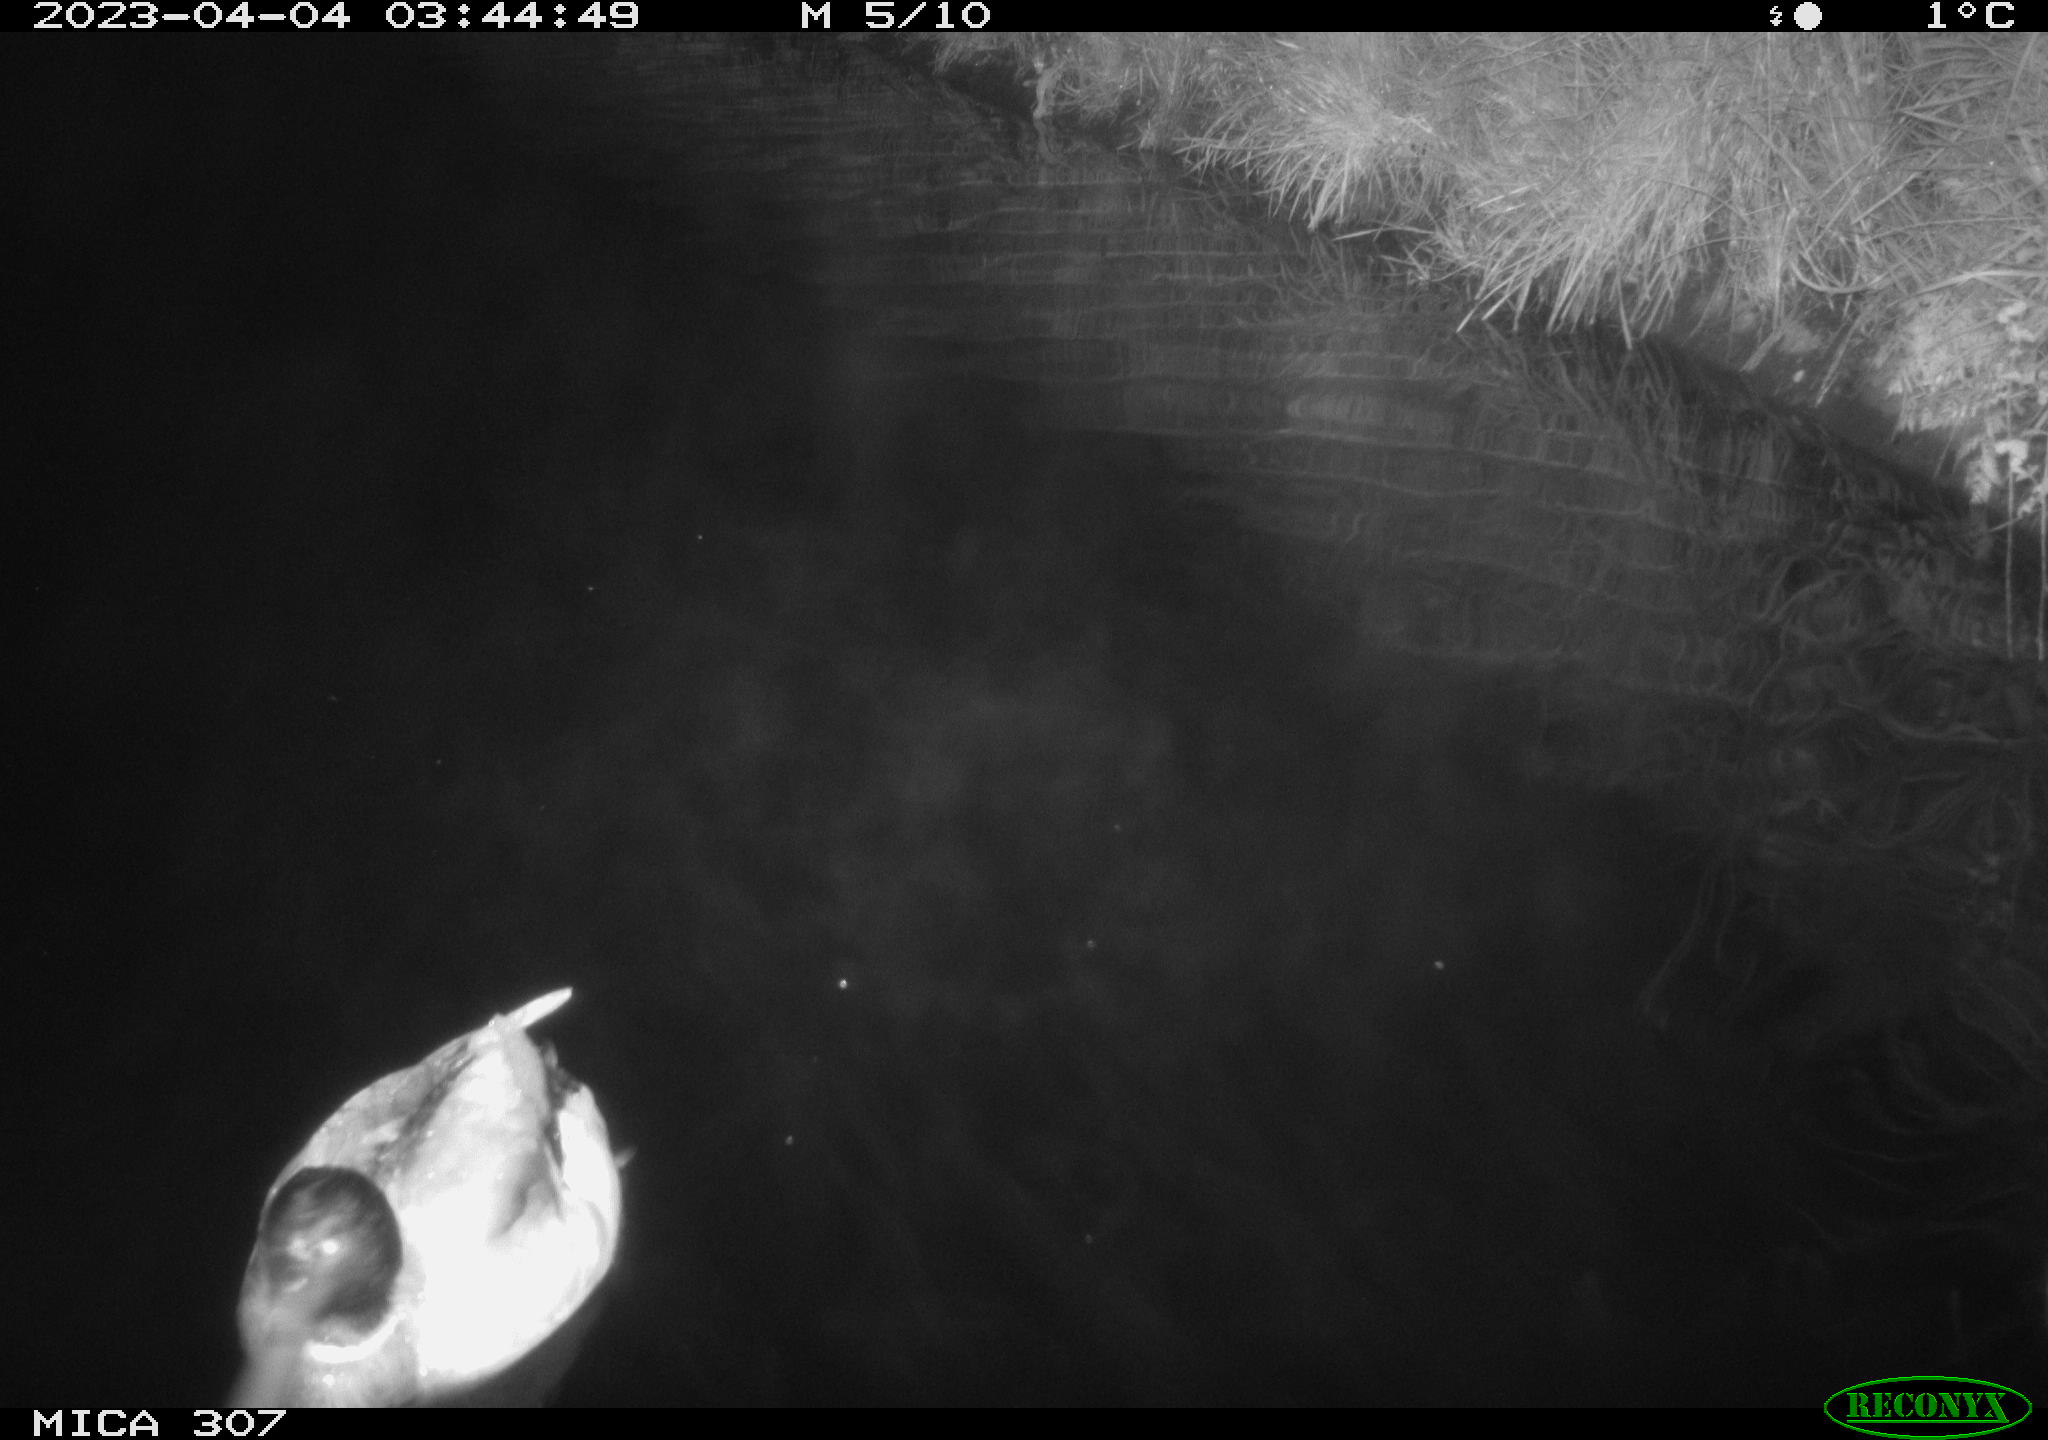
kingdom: Animalia
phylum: Chordata
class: Aves
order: Anseriformes
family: Anatidae
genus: Anas
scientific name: Anas
